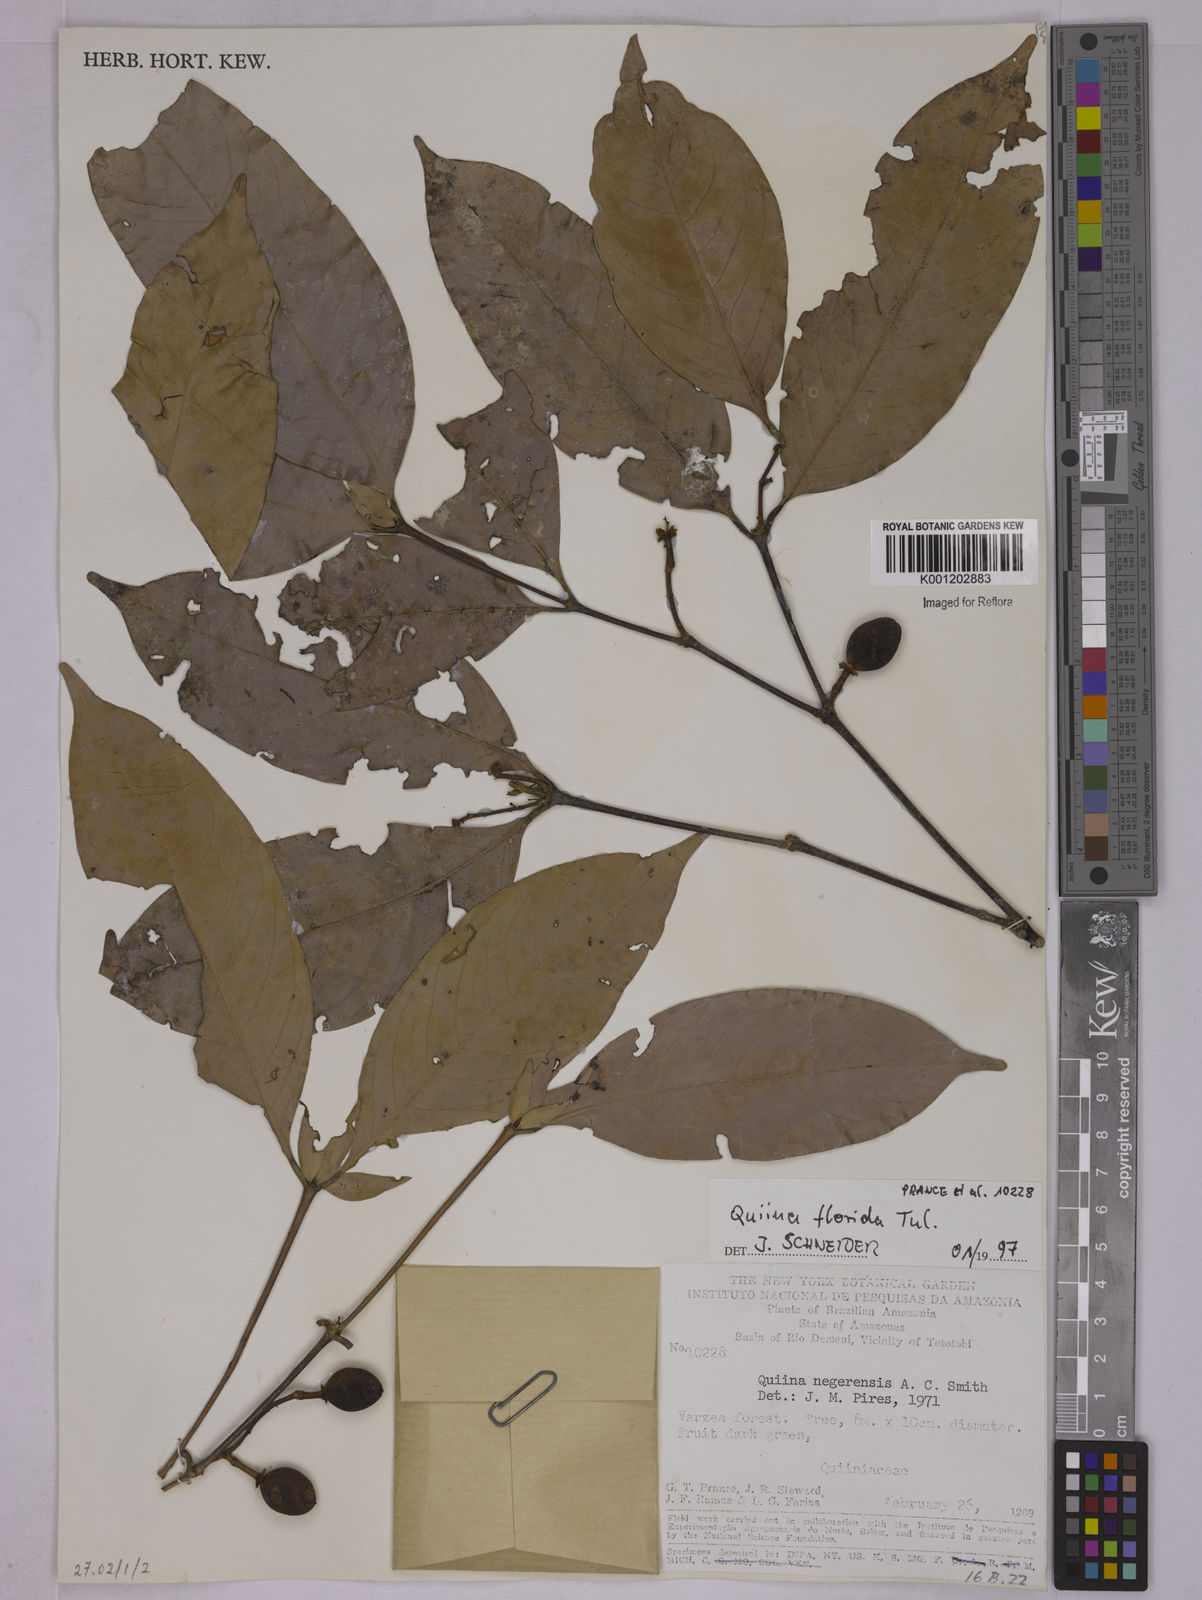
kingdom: Plantae
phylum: Tracheophyta
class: Magnoliopsida
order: Malpighiales
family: Quiinaceae
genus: Quiina
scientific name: Quiina florida
